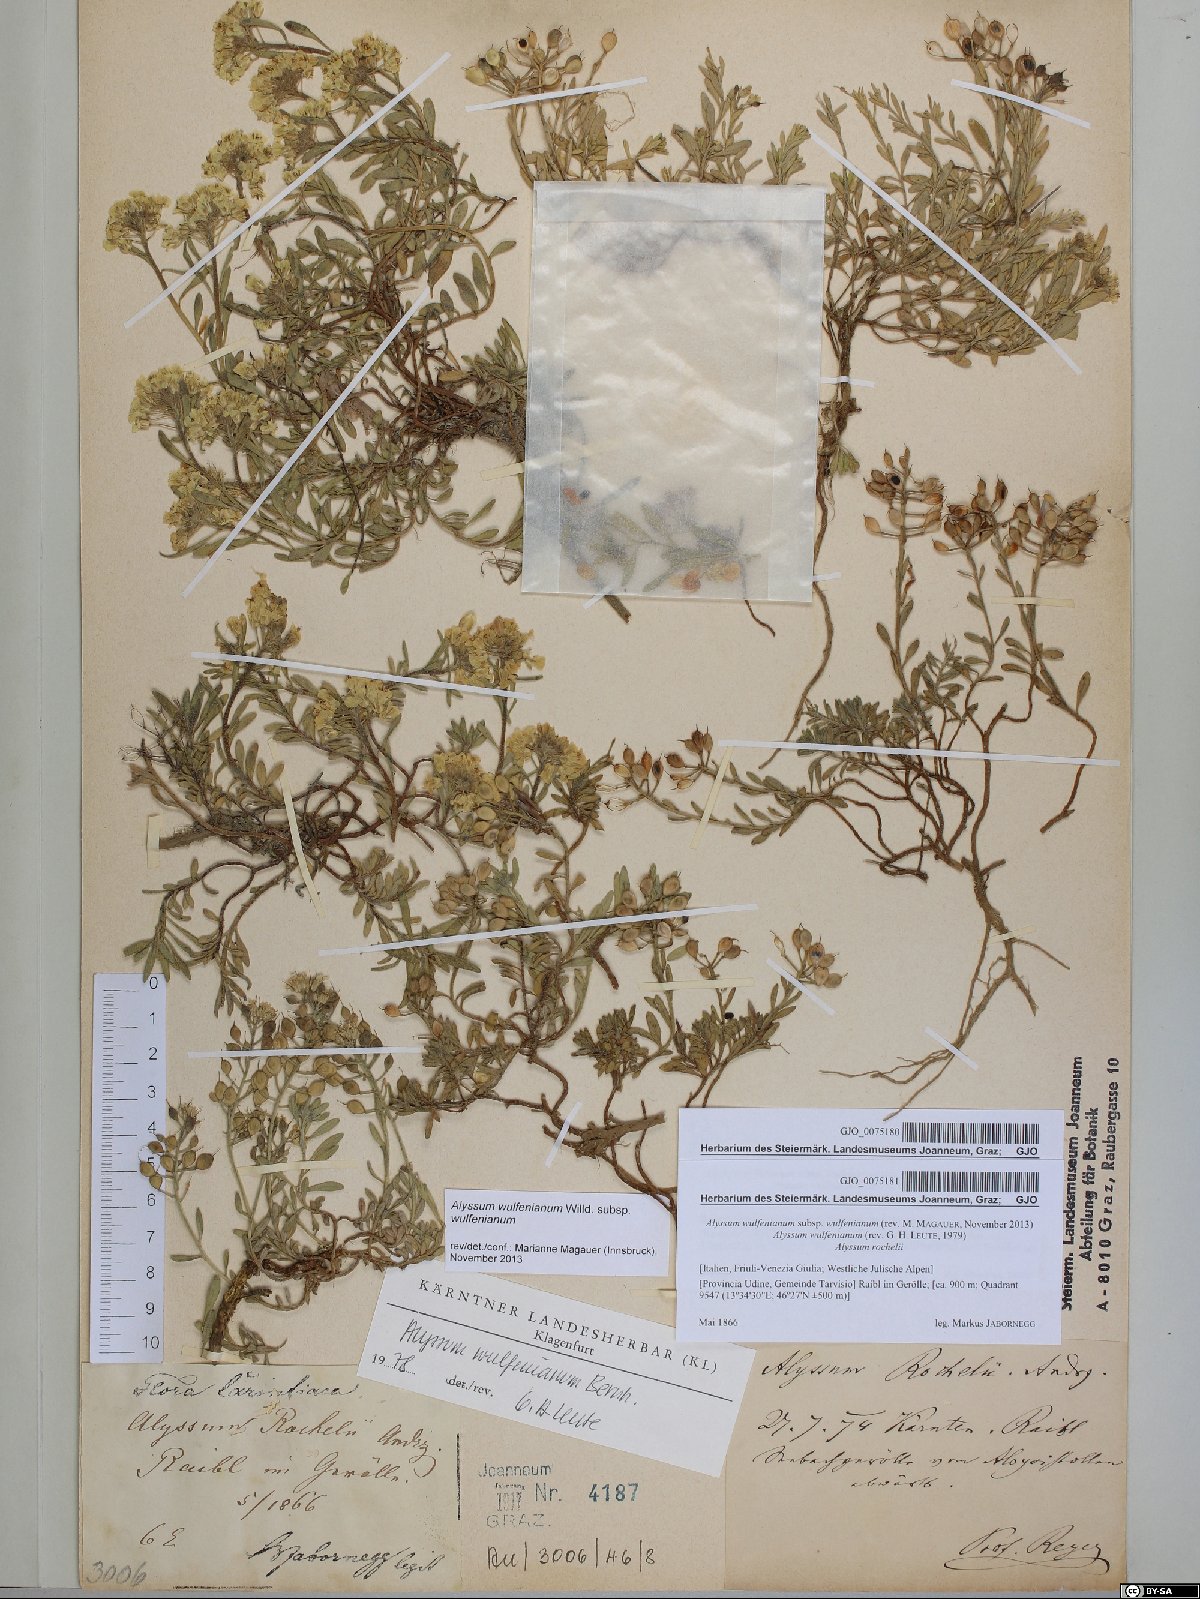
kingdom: Plantae
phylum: Tracheophyta
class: Magnoliopsida
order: Brassicales
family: Brassicaceae
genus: Alyssum
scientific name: Alyssum wulfenianum
